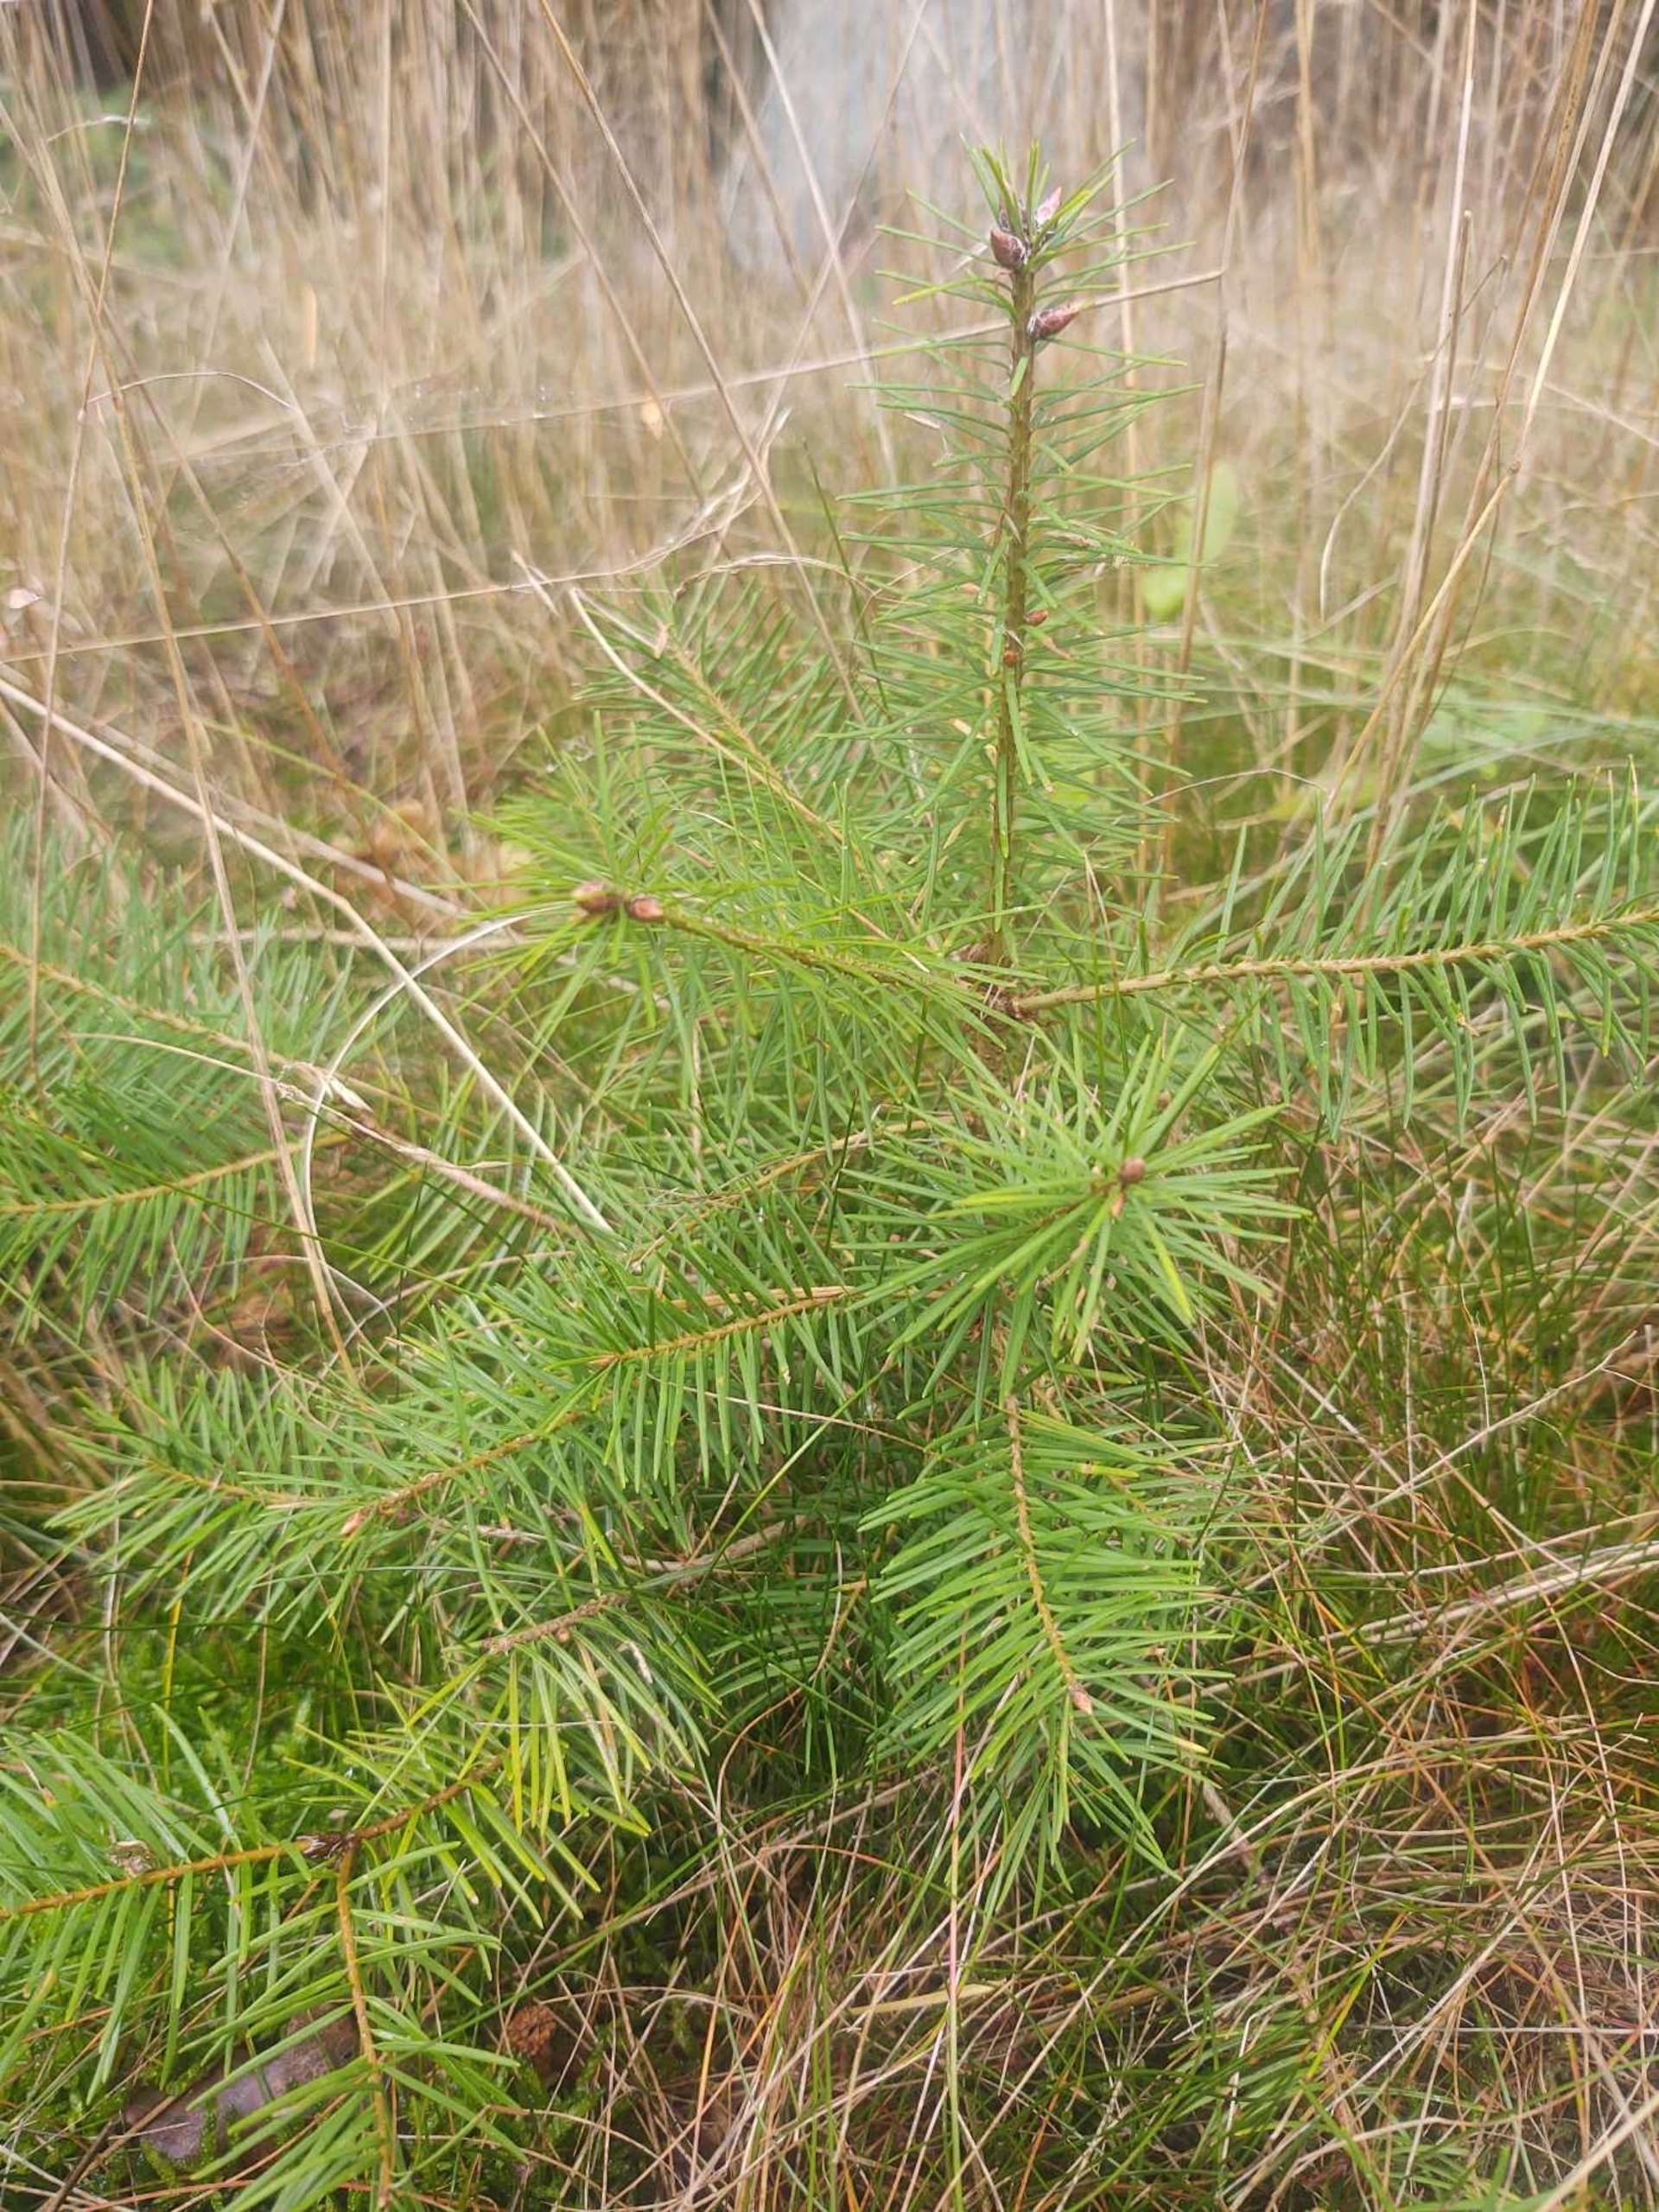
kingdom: Plantae
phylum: Tracheophyta
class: Pinopsida
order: Pinales
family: Pinaceae
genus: Pseudotsuga
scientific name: Pseudotsuga menziesii
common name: Douglasgran
